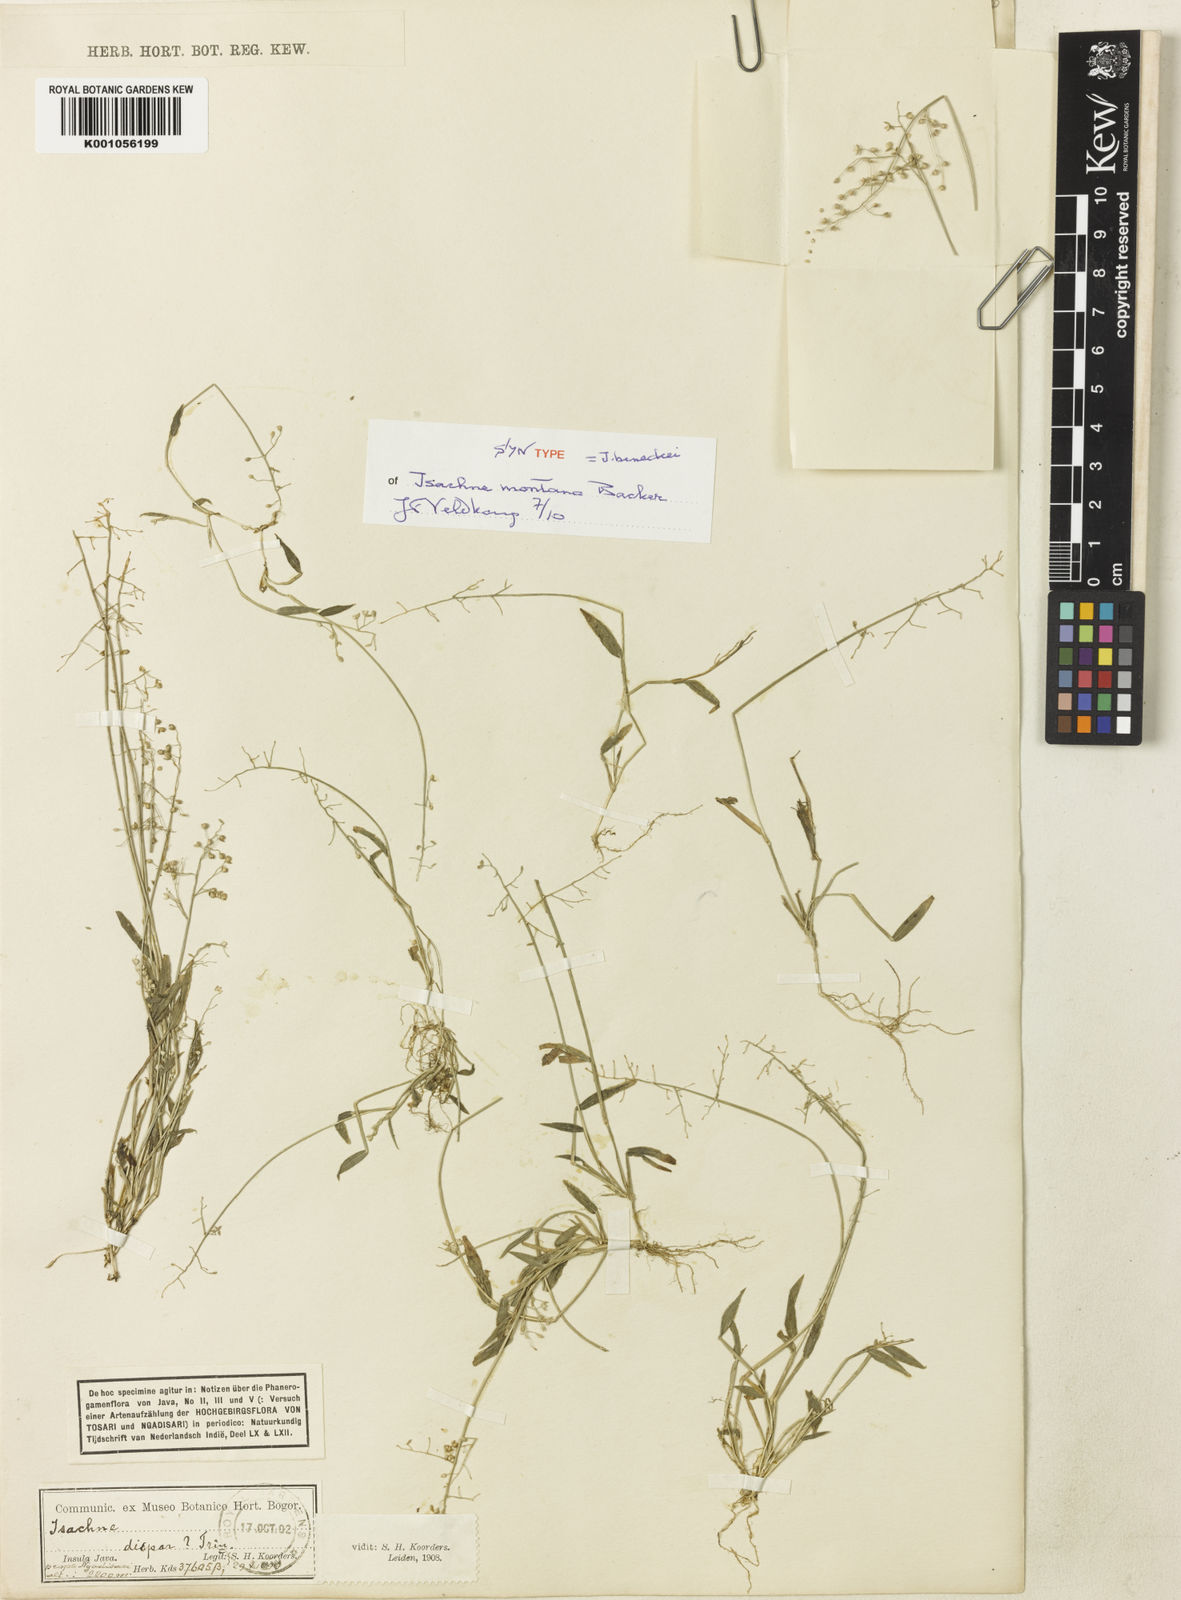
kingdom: Plantae
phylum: Tracheophyta
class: Liliopsida
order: Poales
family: Poaceae
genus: Isachne
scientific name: Isachne clarkei
